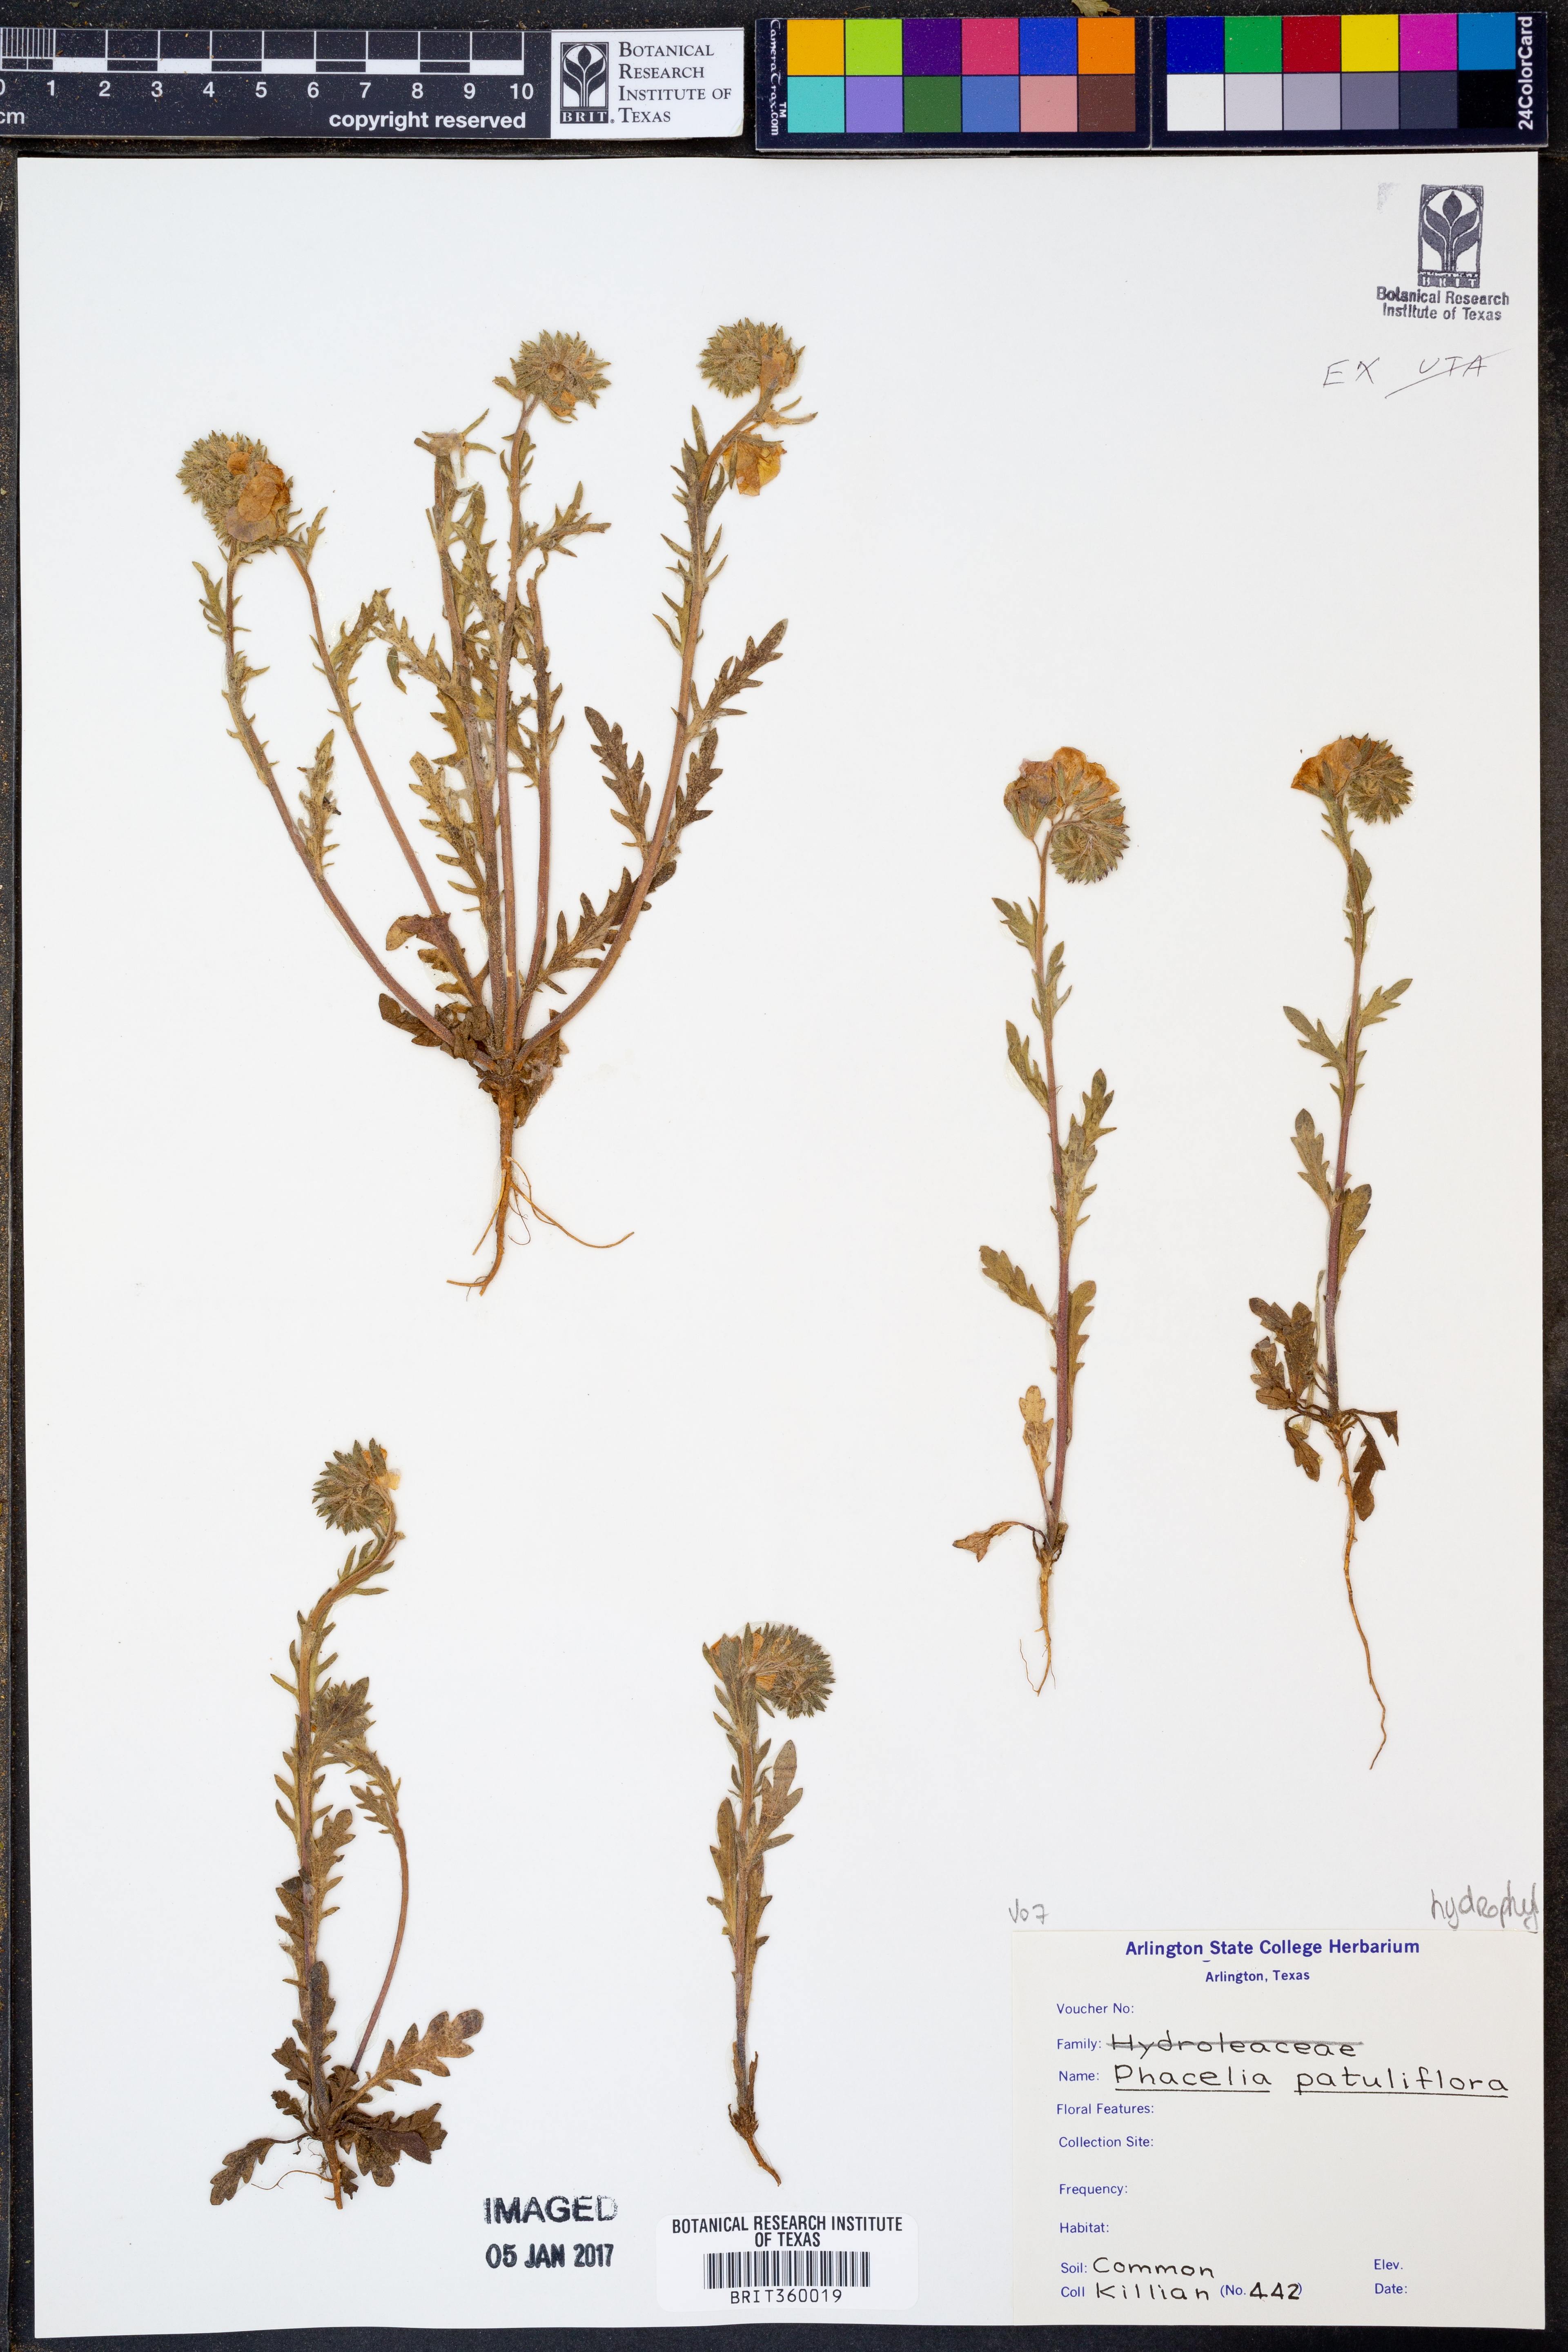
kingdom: Plantae
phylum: Tracheophyta
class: Magnoliopsida
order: Boraginales
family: Hydrophyllaceae
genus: Phacelia
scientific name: Phacelia patuliflora
